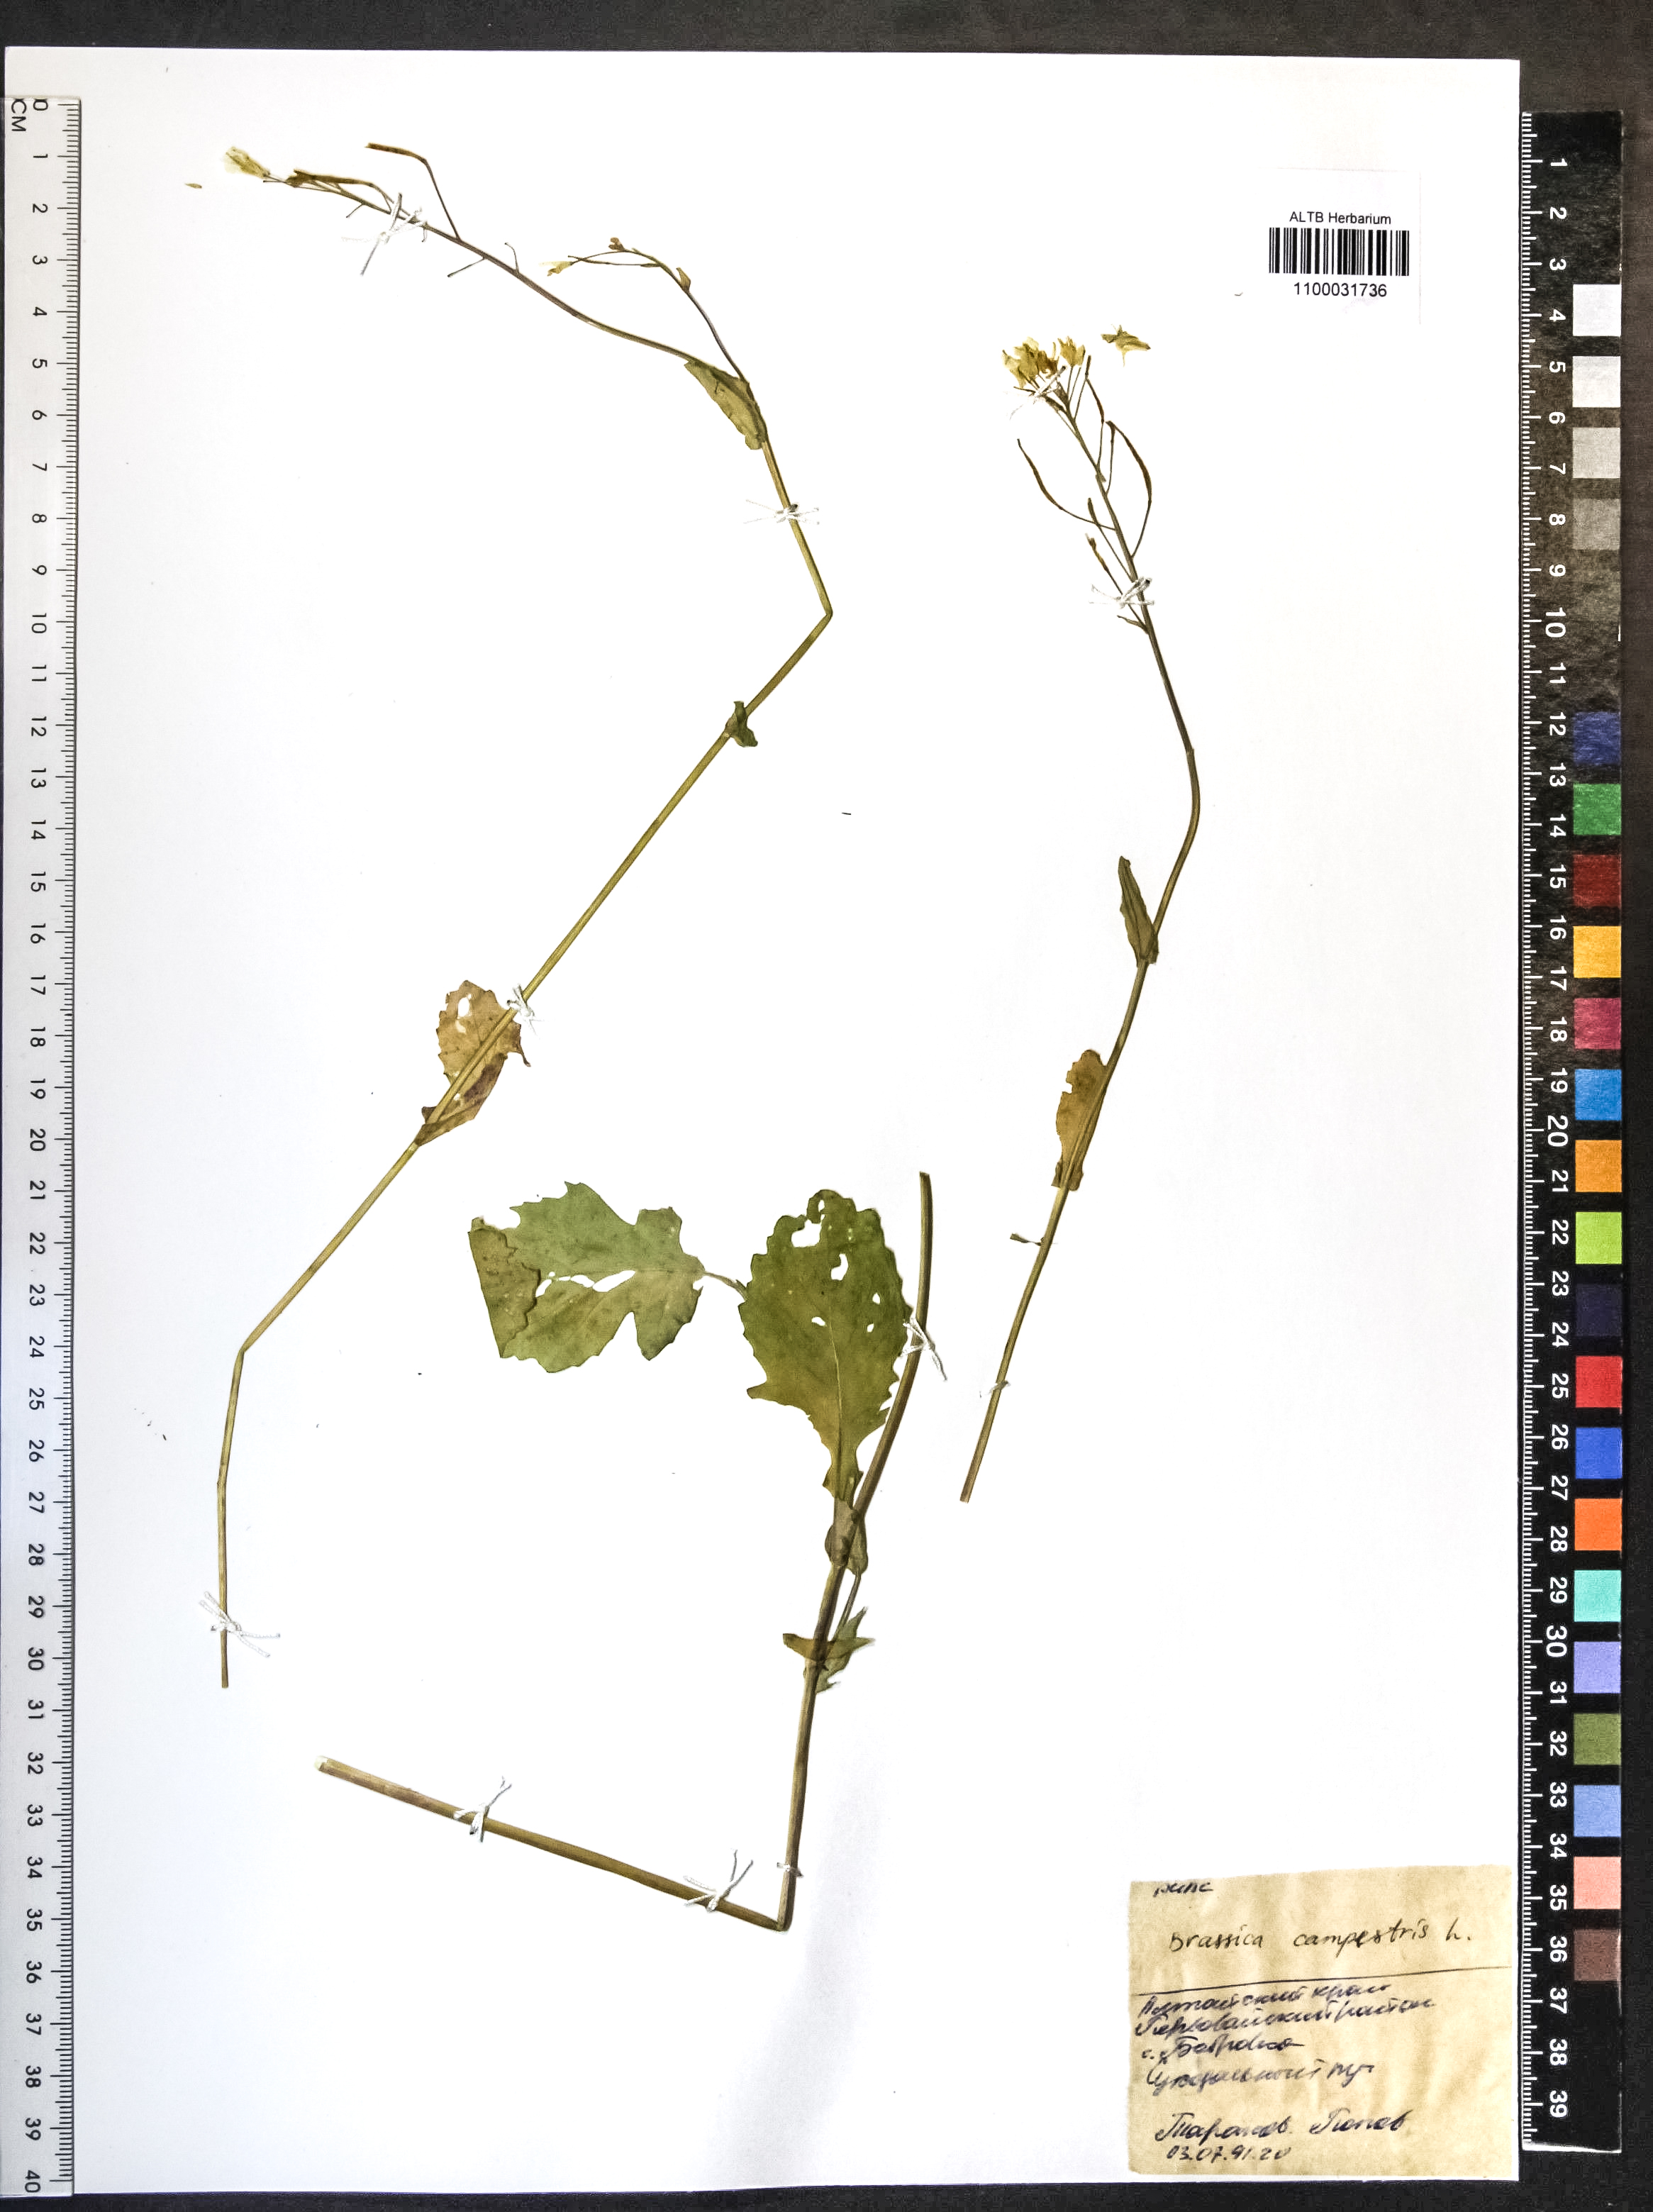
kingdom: Plantae
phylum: Tracheophyta
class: Magnoliopsida
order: Brassicales
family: Brassicaceae
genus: Brassica
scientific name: Brassica rapa
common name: Field mustard
